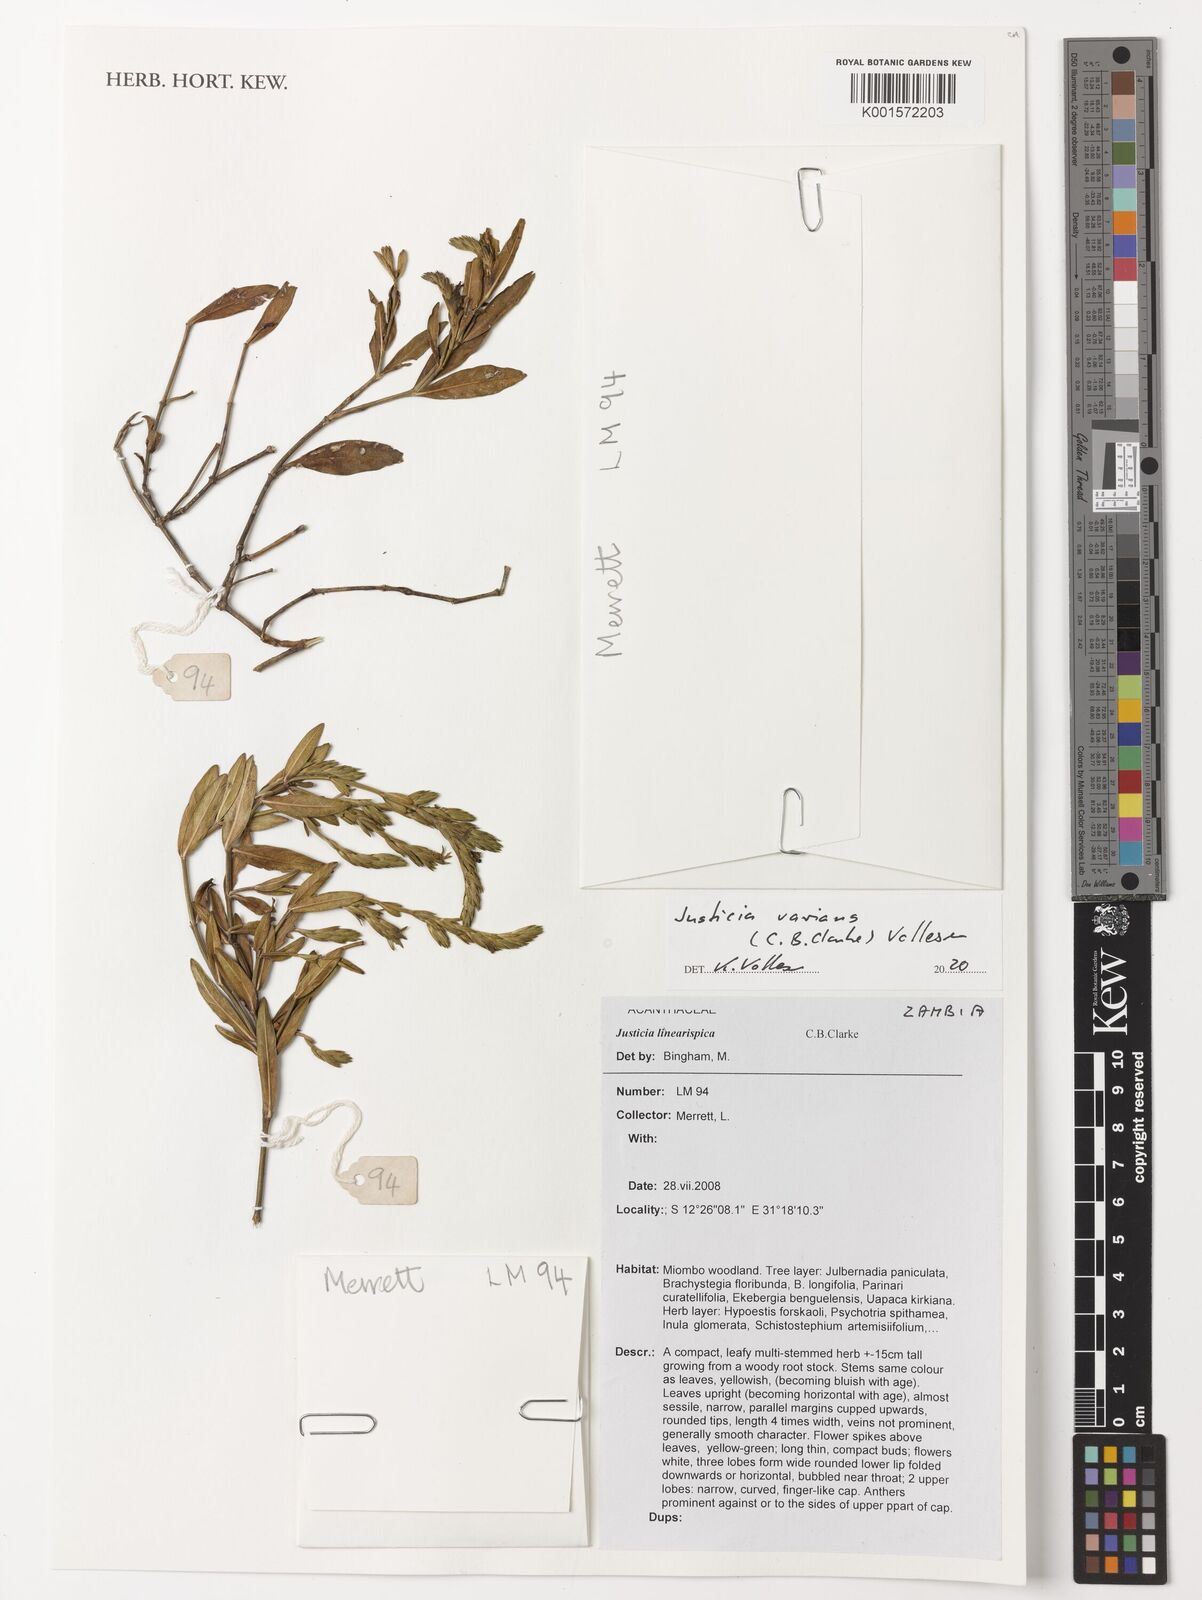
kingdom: Plantae
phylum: Tracheophyta
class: Magnoliopsida
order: Lamiales
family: Acanthaceae
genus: Justicia
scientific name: Justicia linearispica
